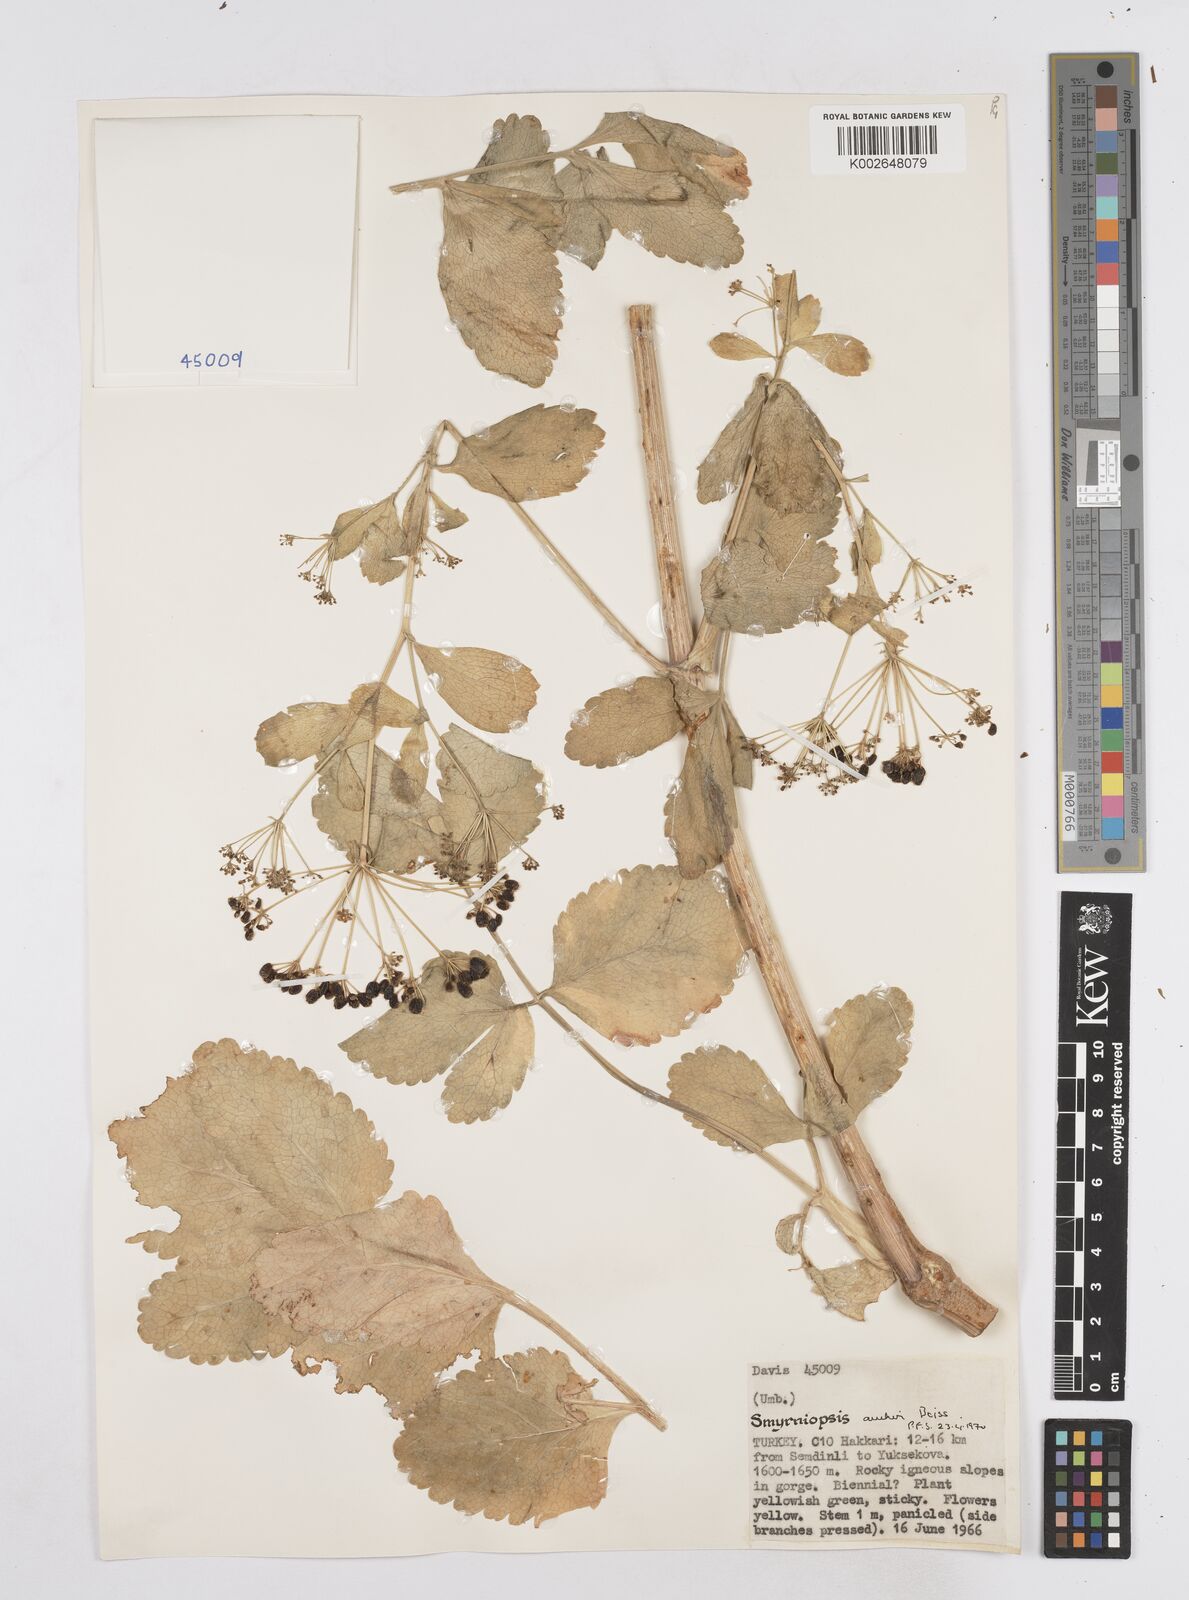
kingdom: Plantae
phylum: Tracheophyta
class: Magnoliopsida
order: Apiales
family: Apiaceae
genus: Smyrniopsis
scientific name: Smyrniopsis aucheri
